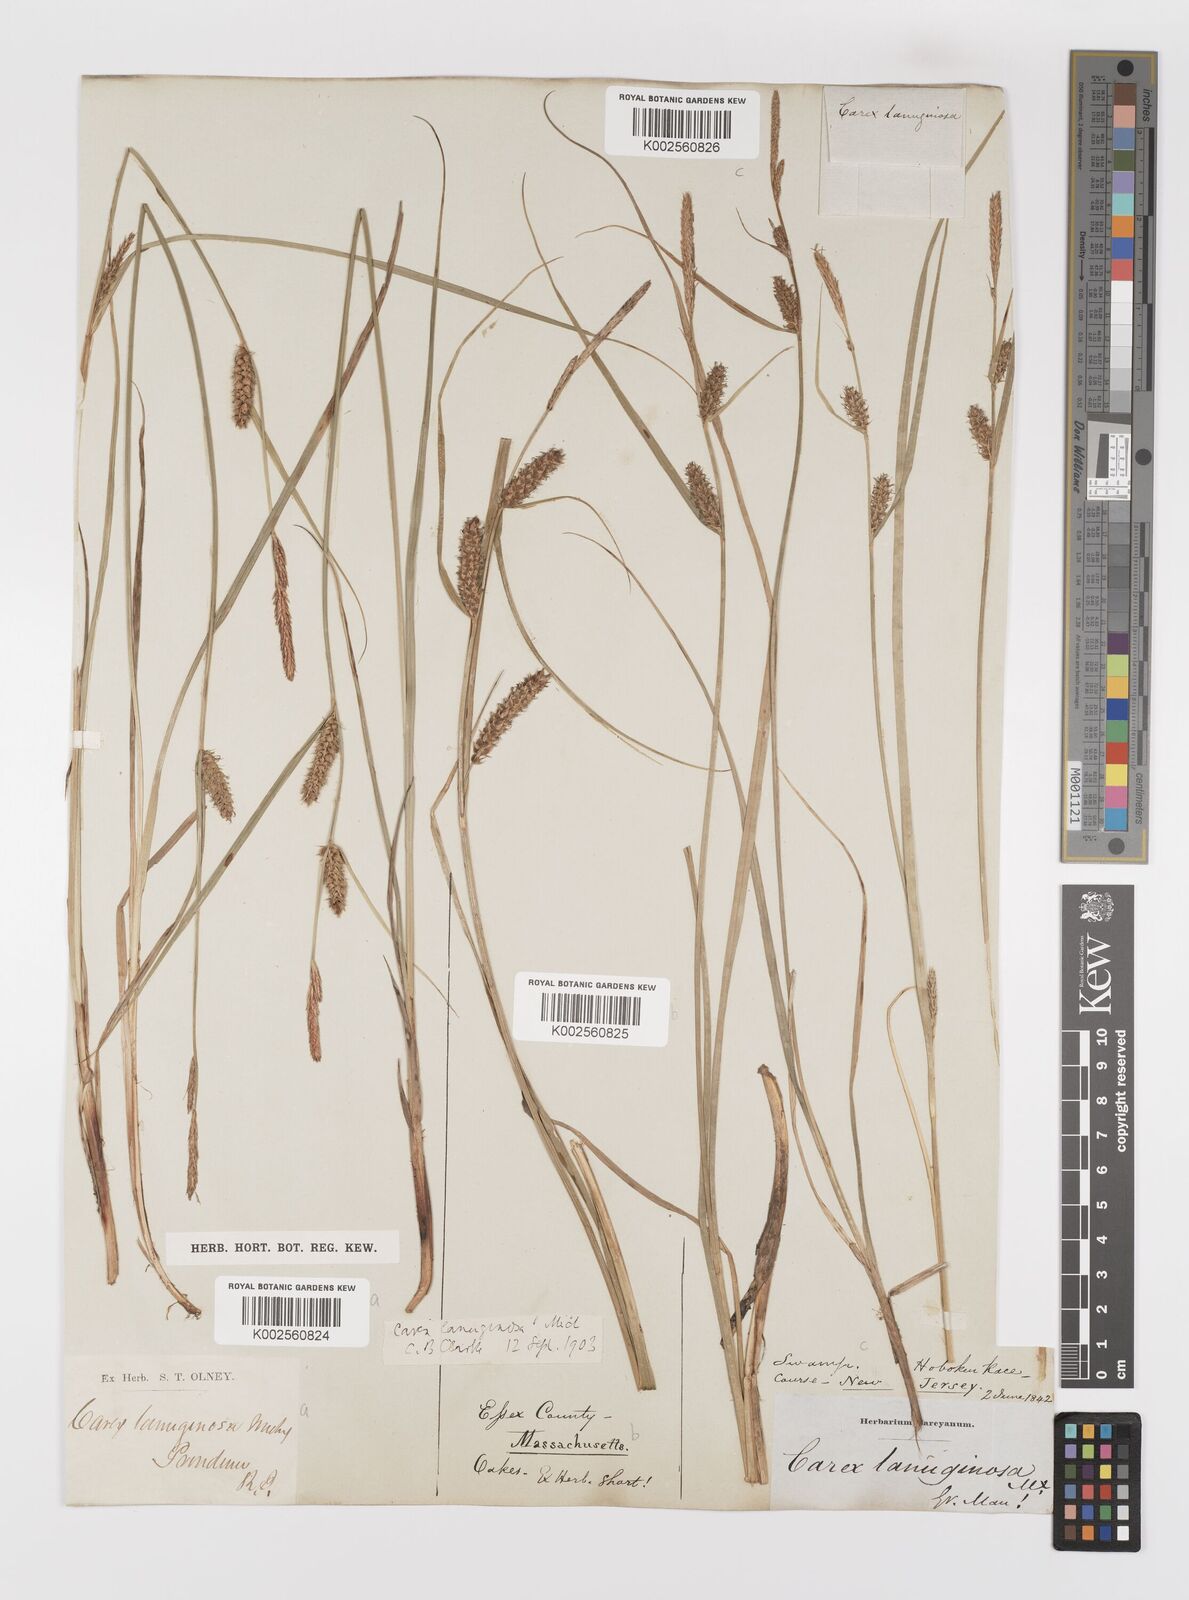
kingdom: Plantae
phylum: Tracheophyta
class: Liliopsida
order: Poales
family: Cyperaceae
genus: Carex
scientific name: Carex lasiocarpa
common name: Slender sedge
